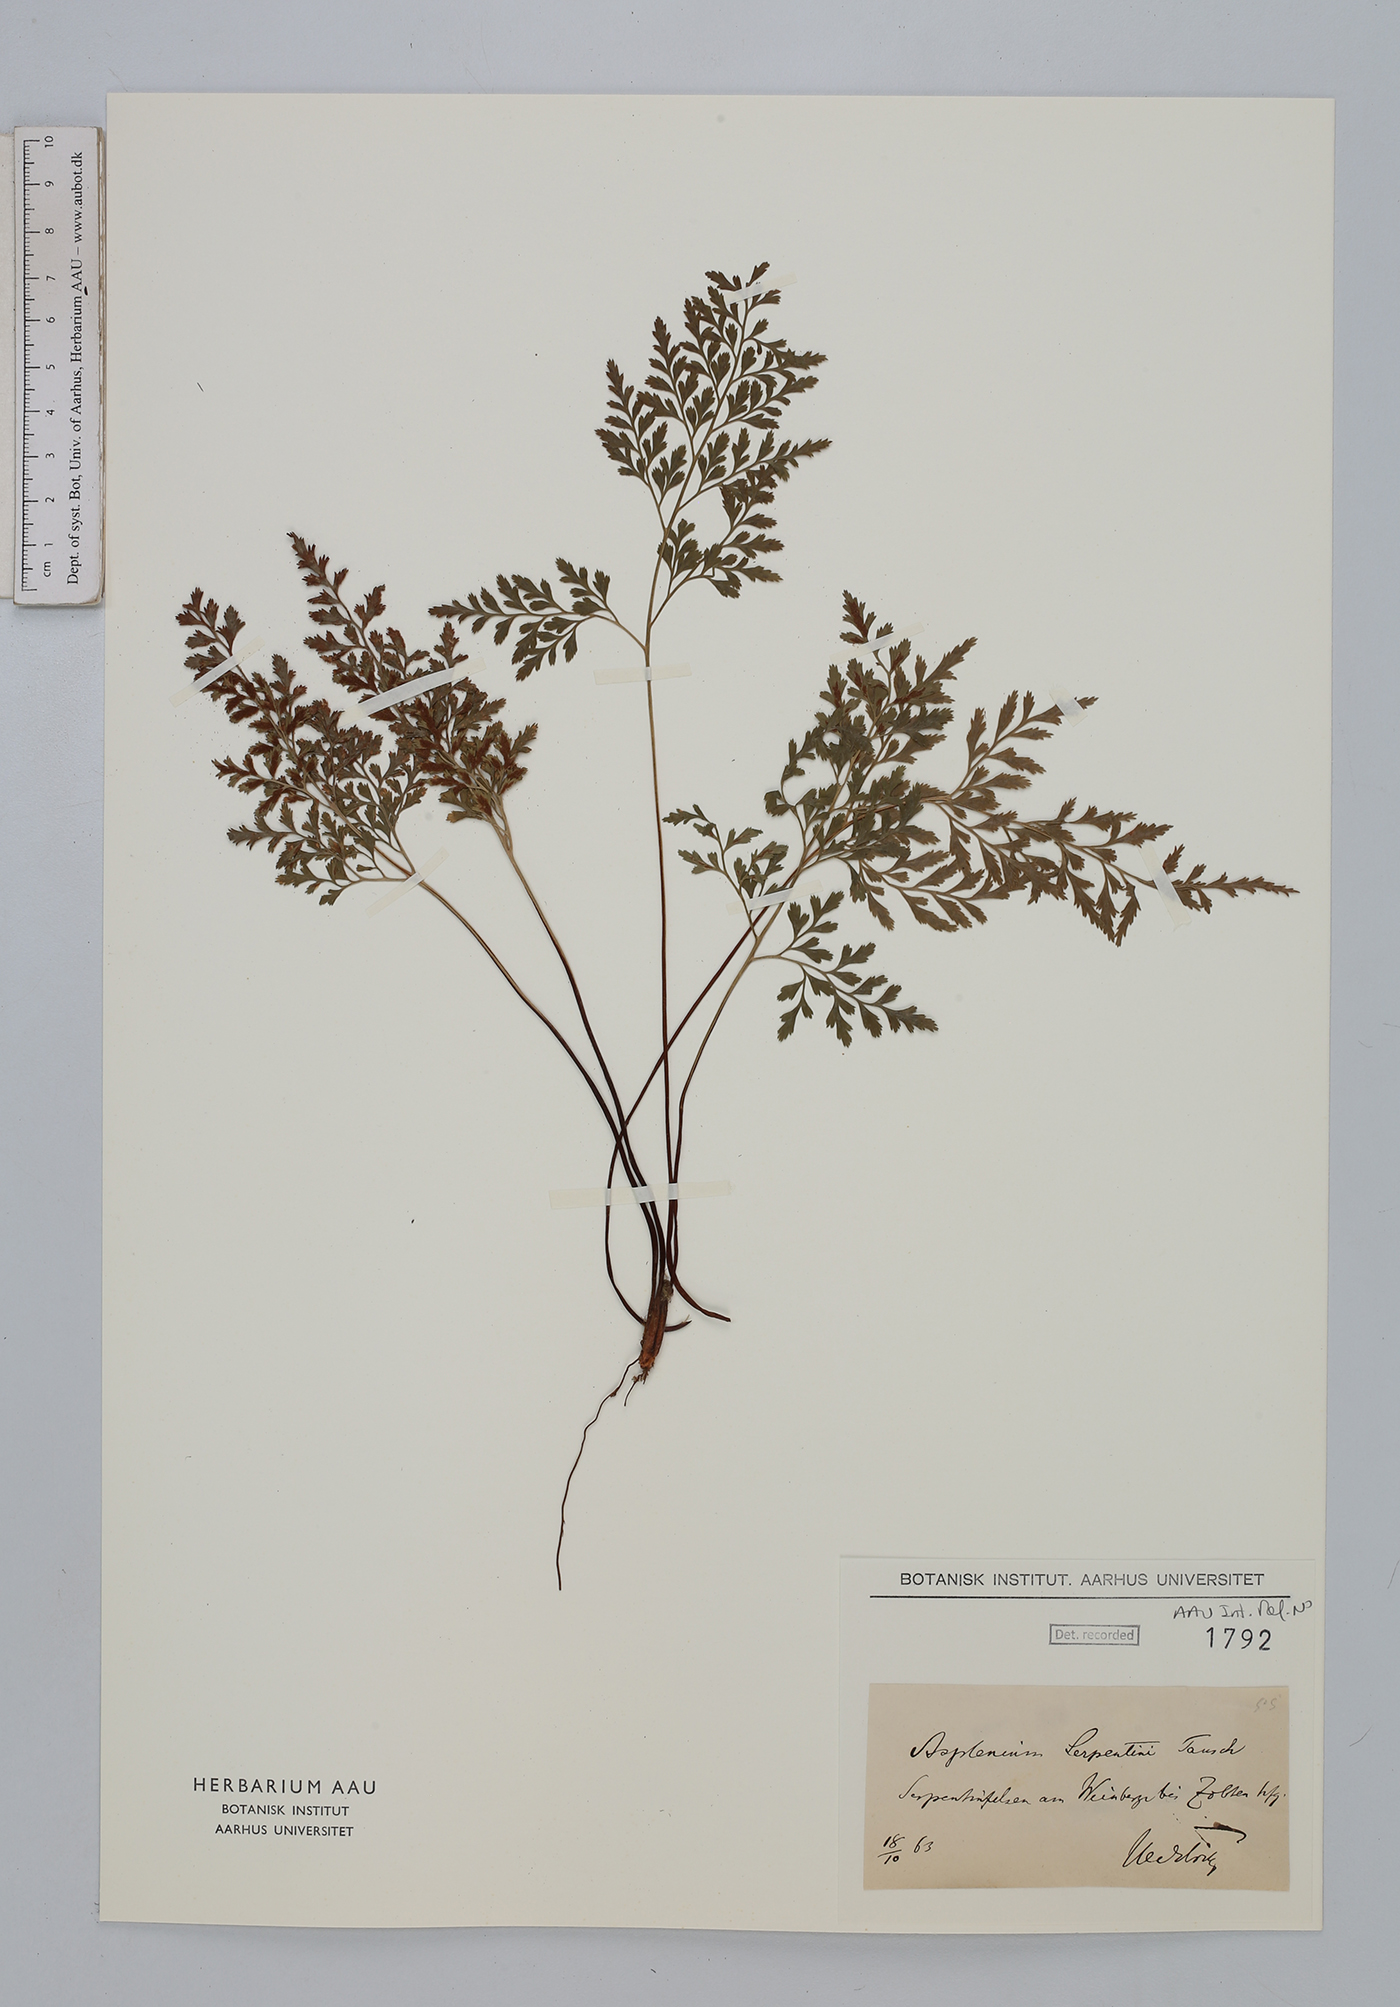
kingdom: Plantae
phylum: Tracheophyta
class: Polypodiopsida
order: Polypodiales
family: Aspleniaceae
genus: Asplenium
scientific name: Asplenium cuneifolium
